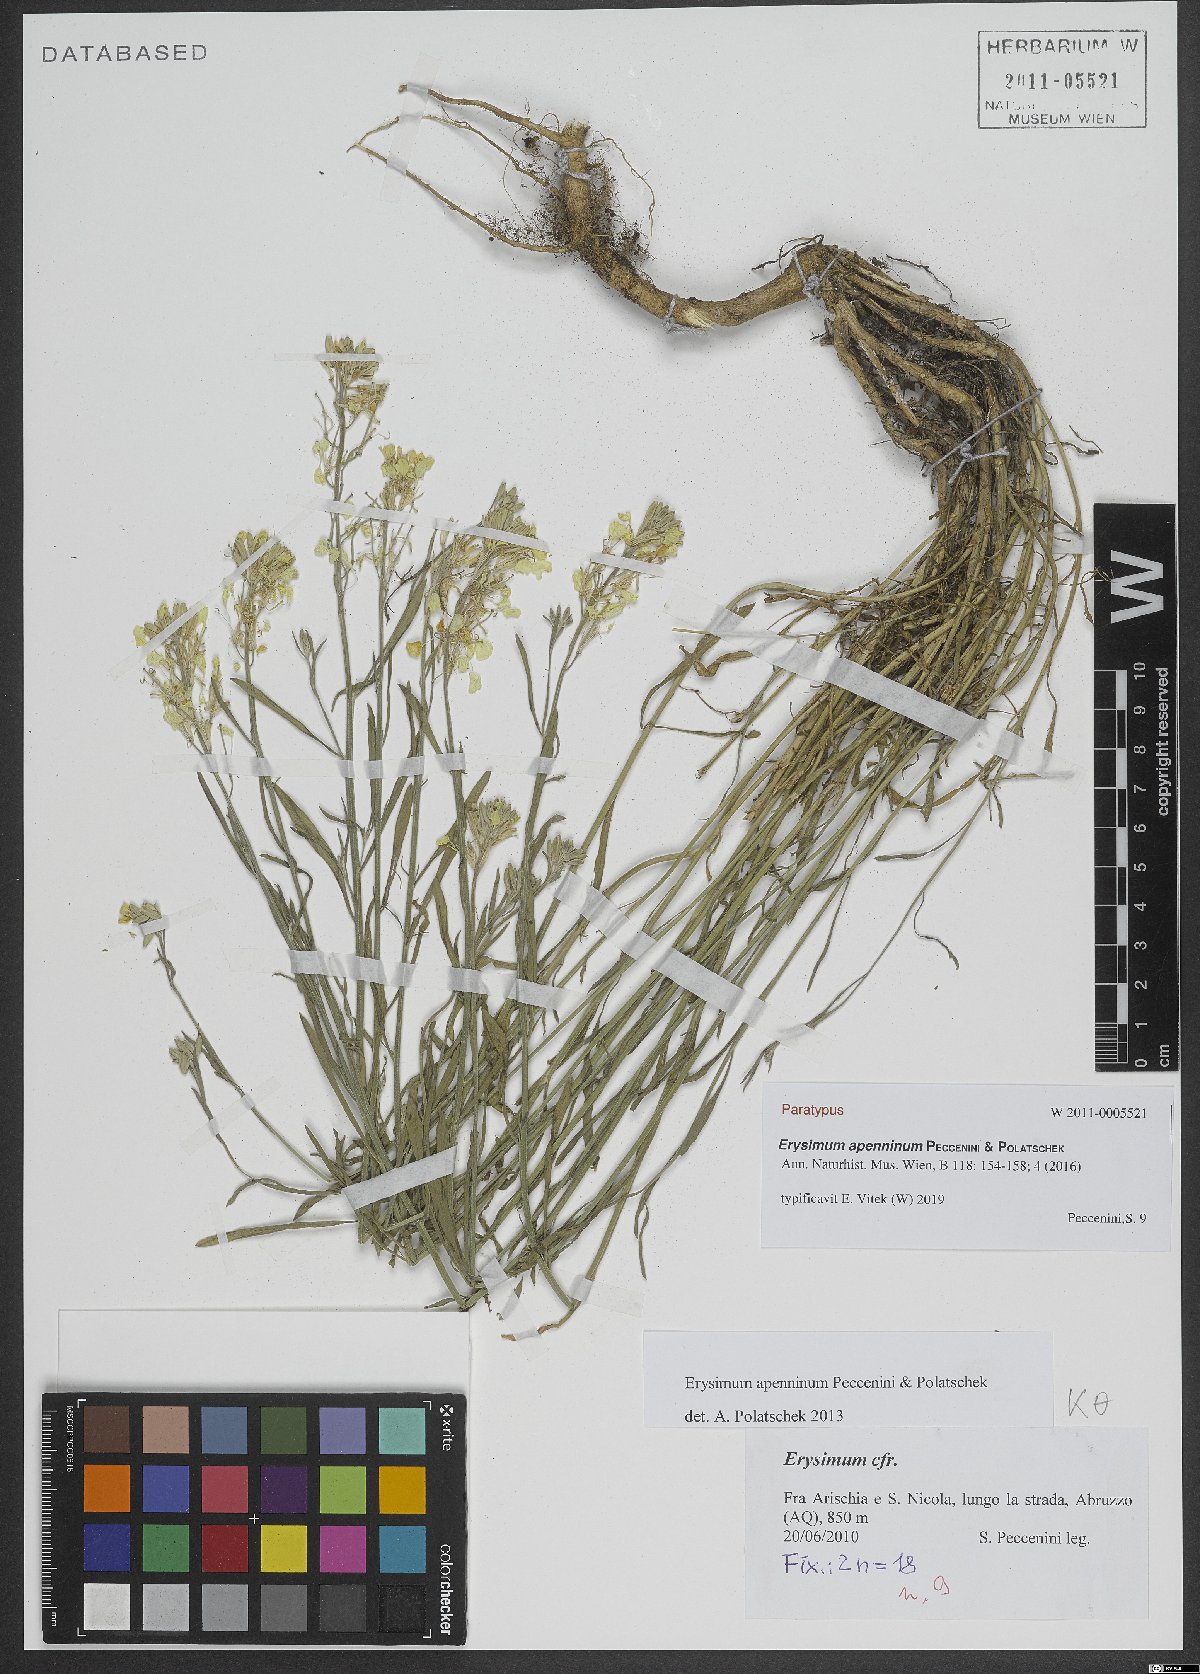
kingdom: Plantae
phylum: Tracheophyta
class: Magnoliopsida
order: Brassicales
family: Brassicaceae
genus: Erysimum
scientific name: Erysimum apenninum
